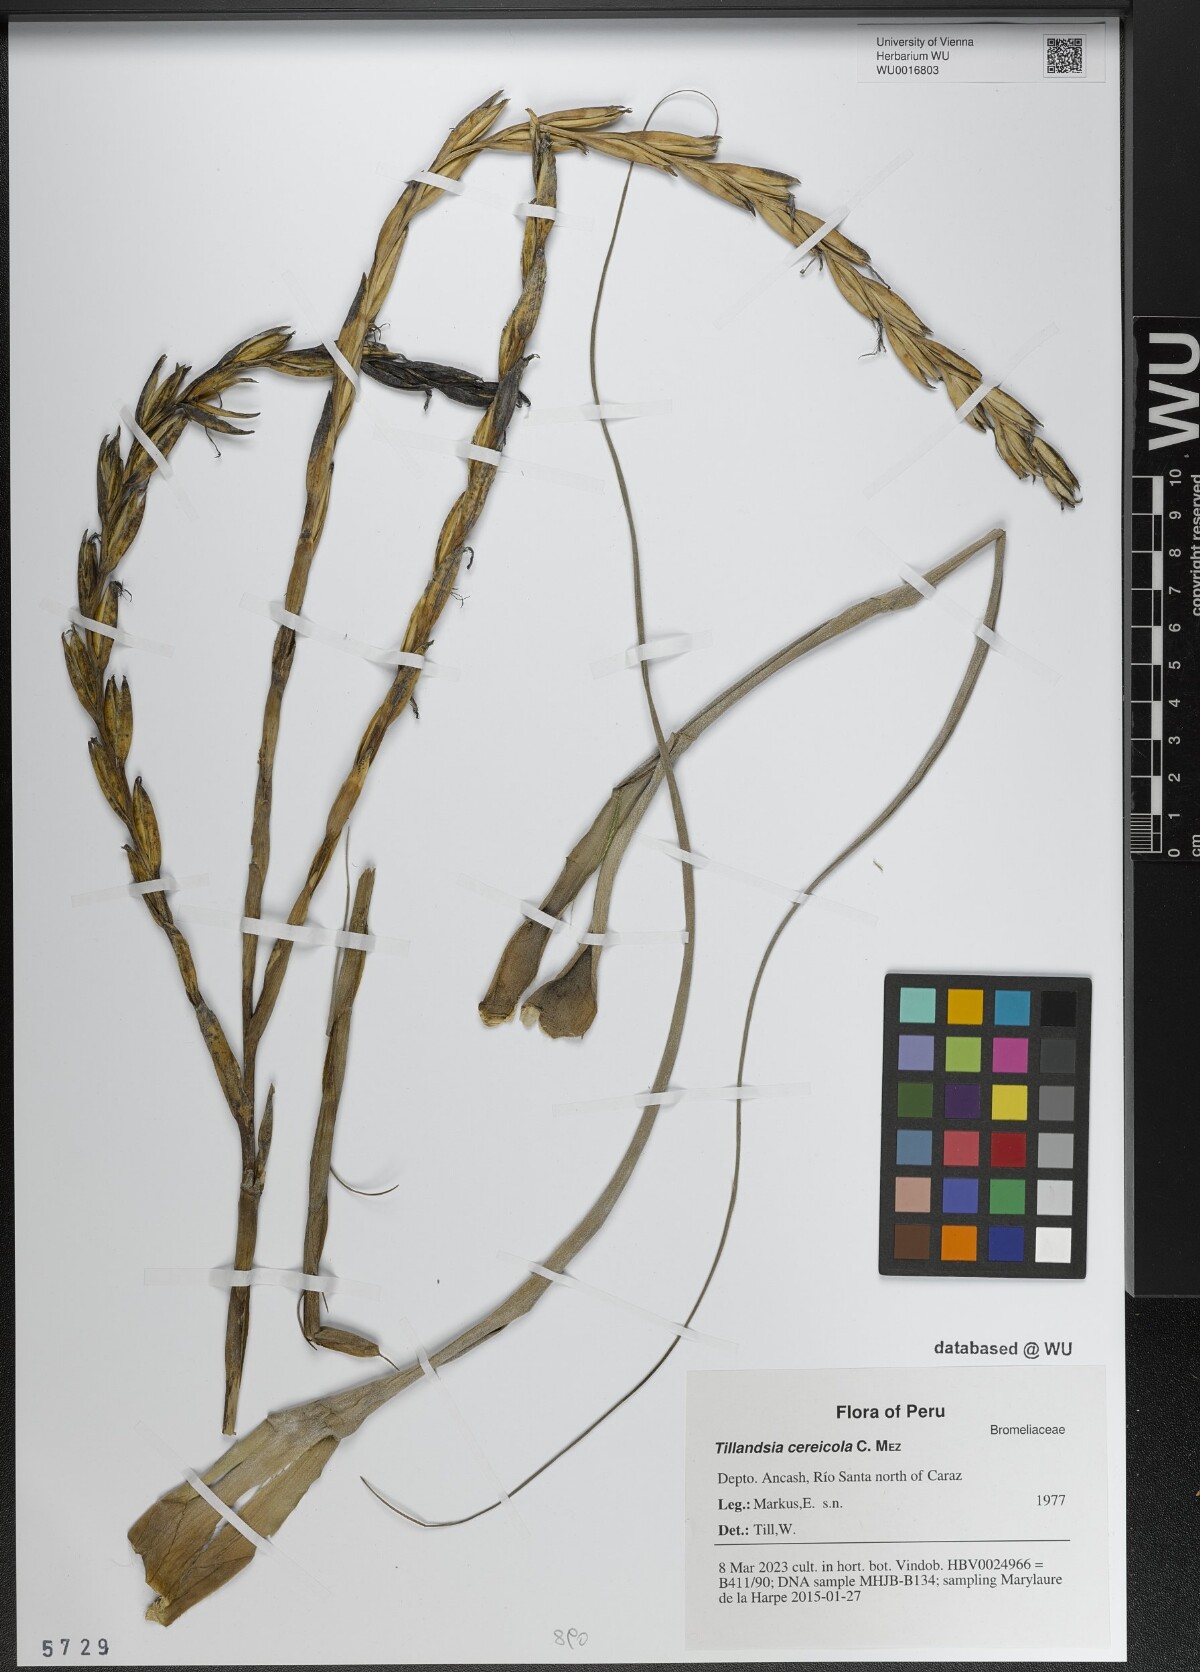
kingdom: Plantae
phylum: Tracheophyta
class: Liliopsida
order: Poales
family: Bromeliaceae
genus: Vriesea
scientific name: Vriesea cereicola
